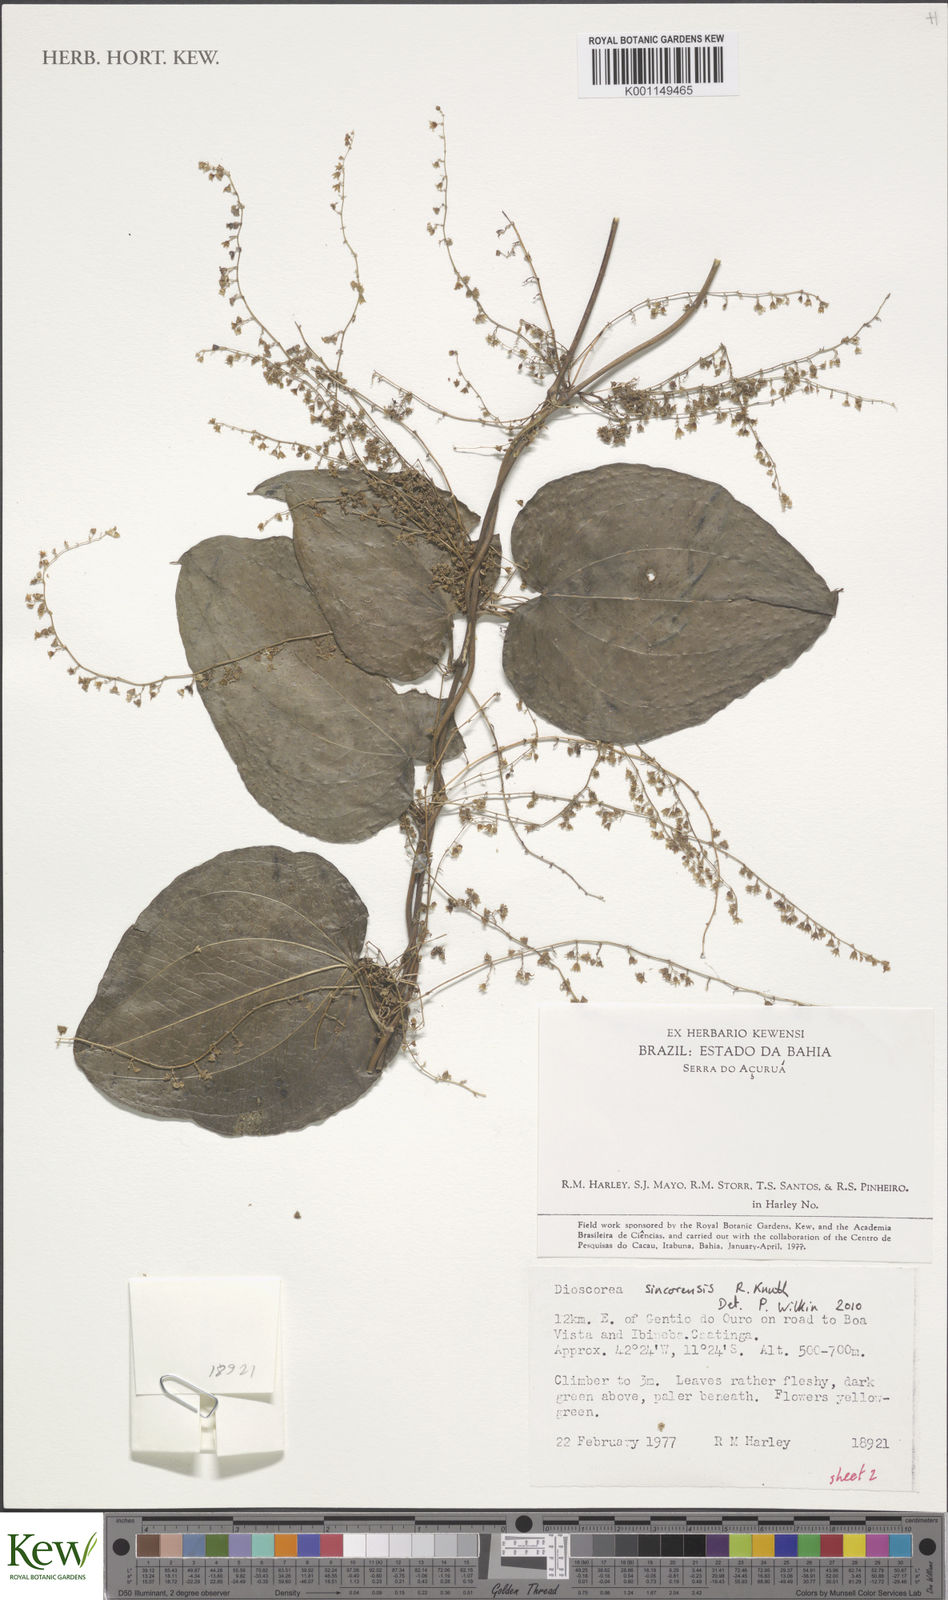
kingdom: Plantae
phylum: Tracheophyta
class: Liliopsida
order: Dioscoreales
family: Dioscoreaceae
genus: Dioscorea
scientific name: Dioscorea campestris
